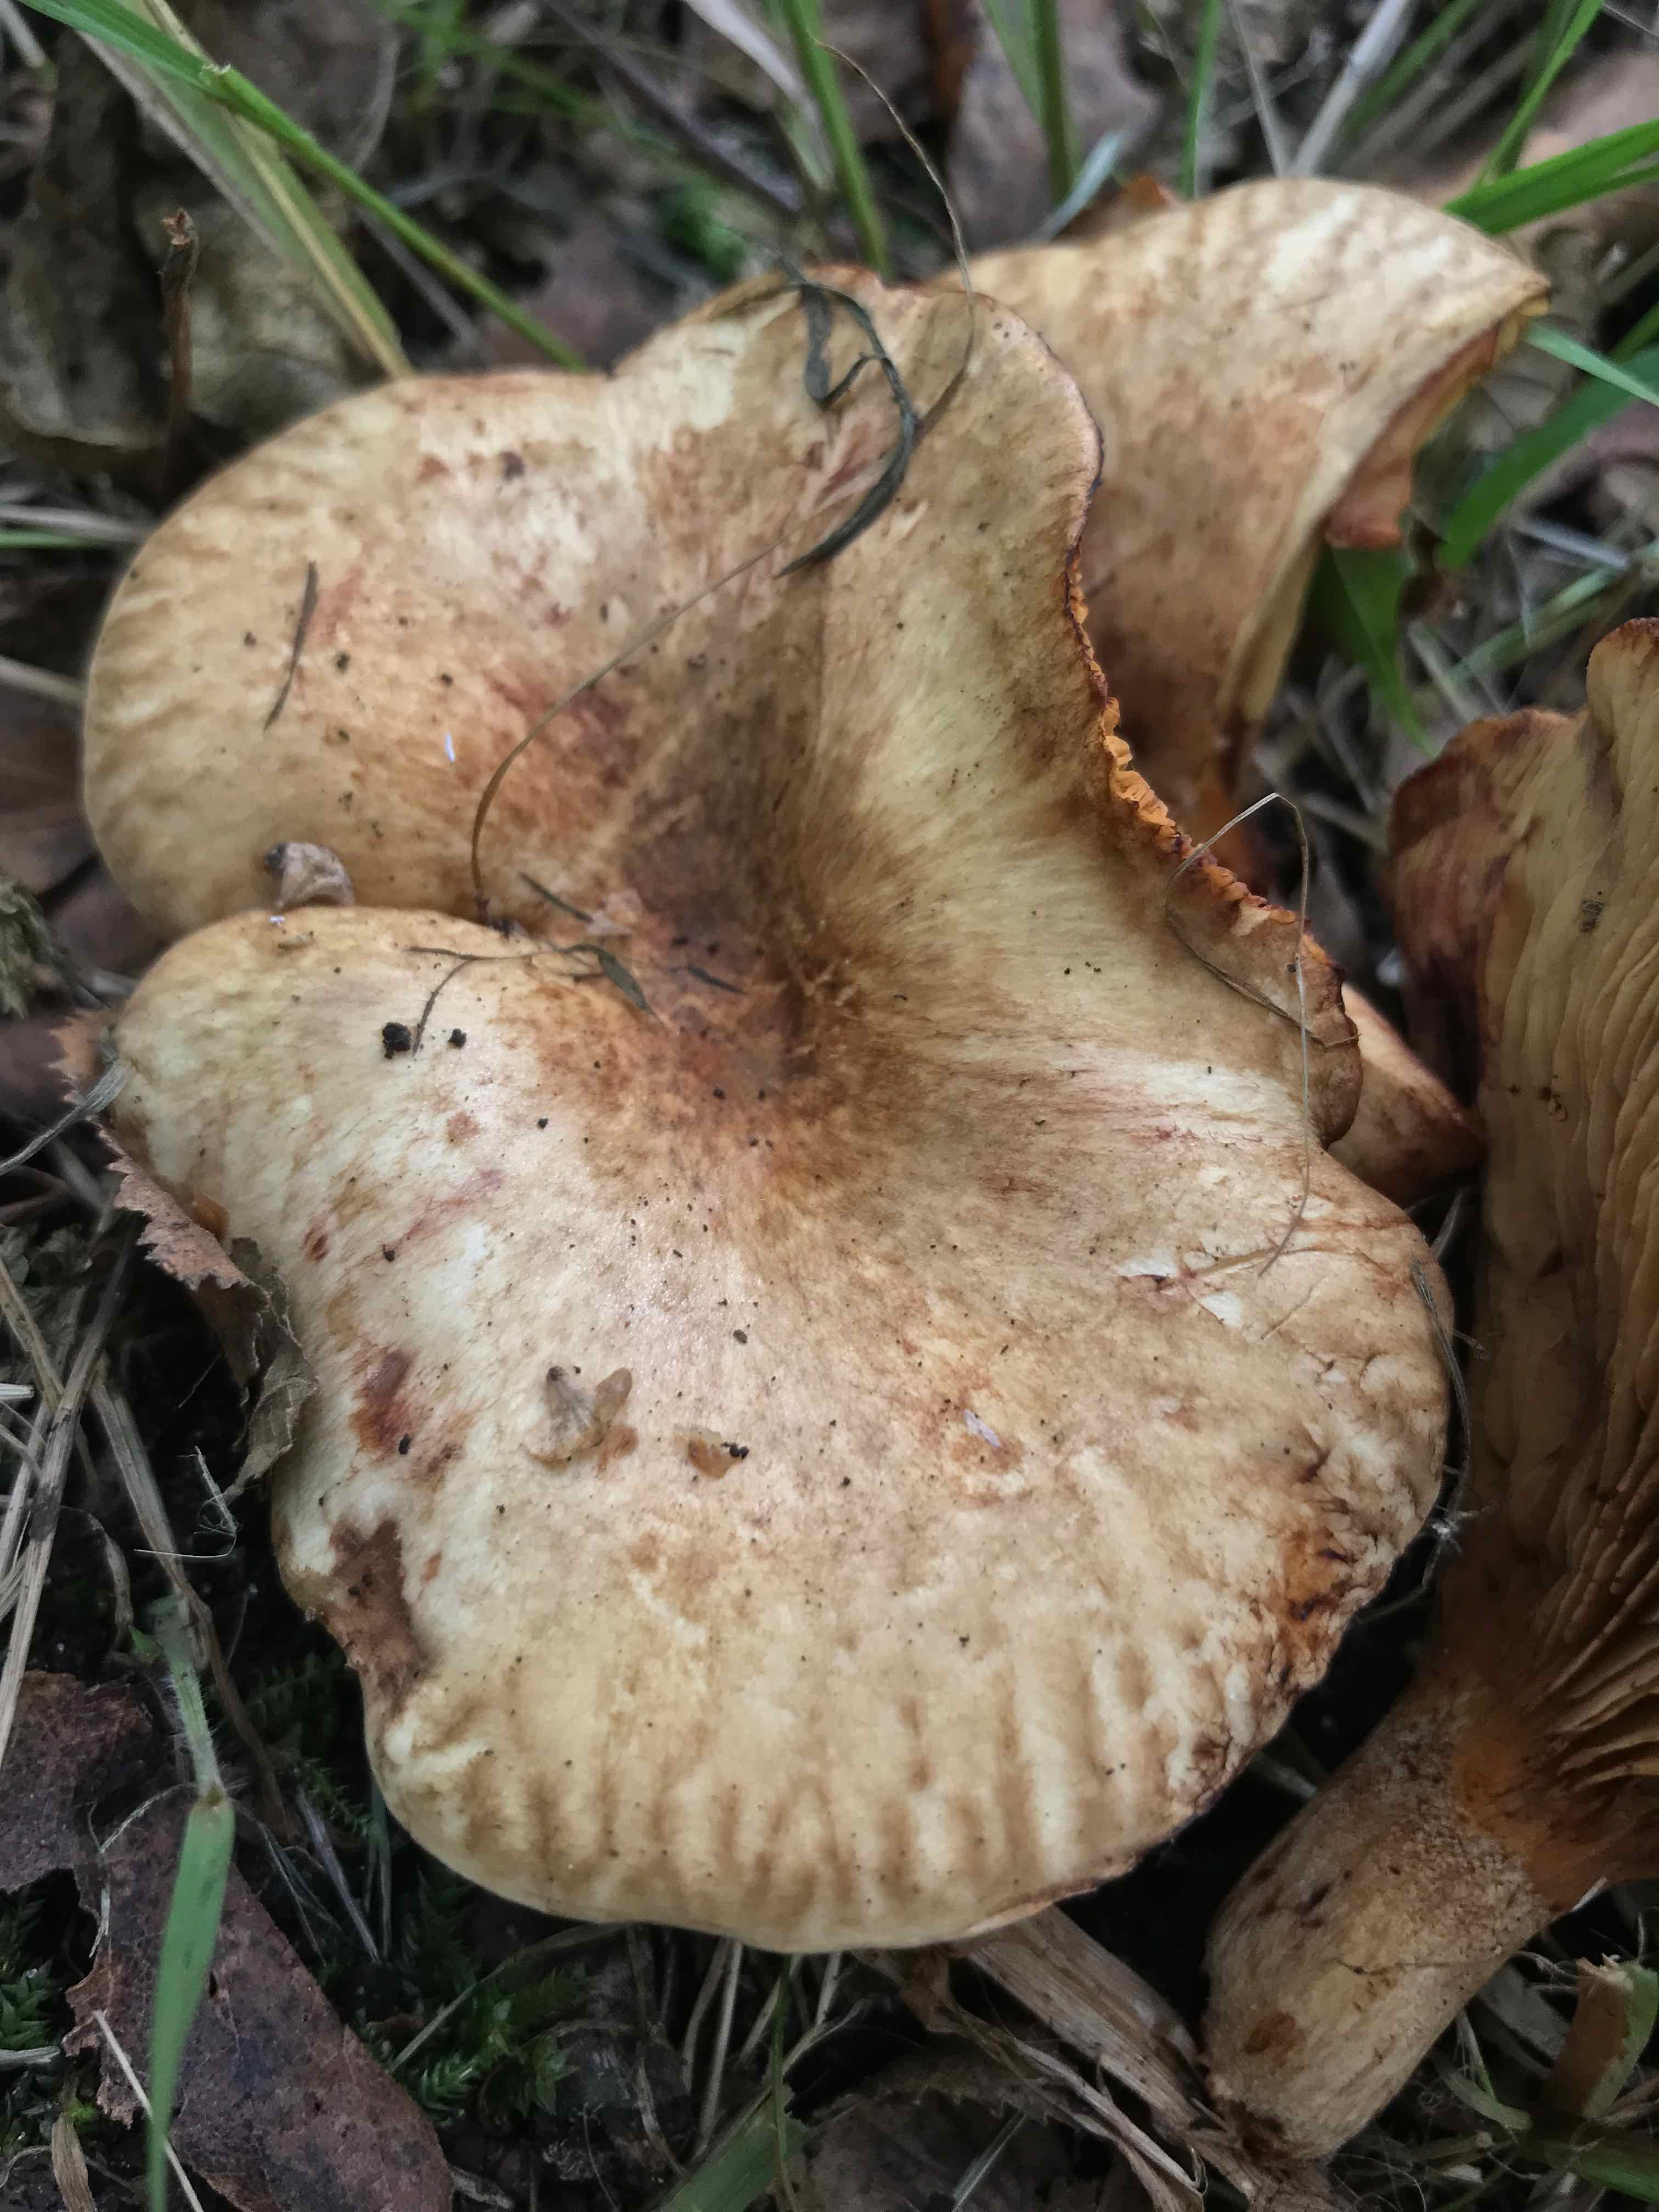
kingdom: Fungi
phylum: Basidiomycota
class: Agaricomycetes
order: Boletales
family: Paxillaceae
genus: Paxillus
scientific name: Paxillus involutus
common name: almindelig netbladhat
